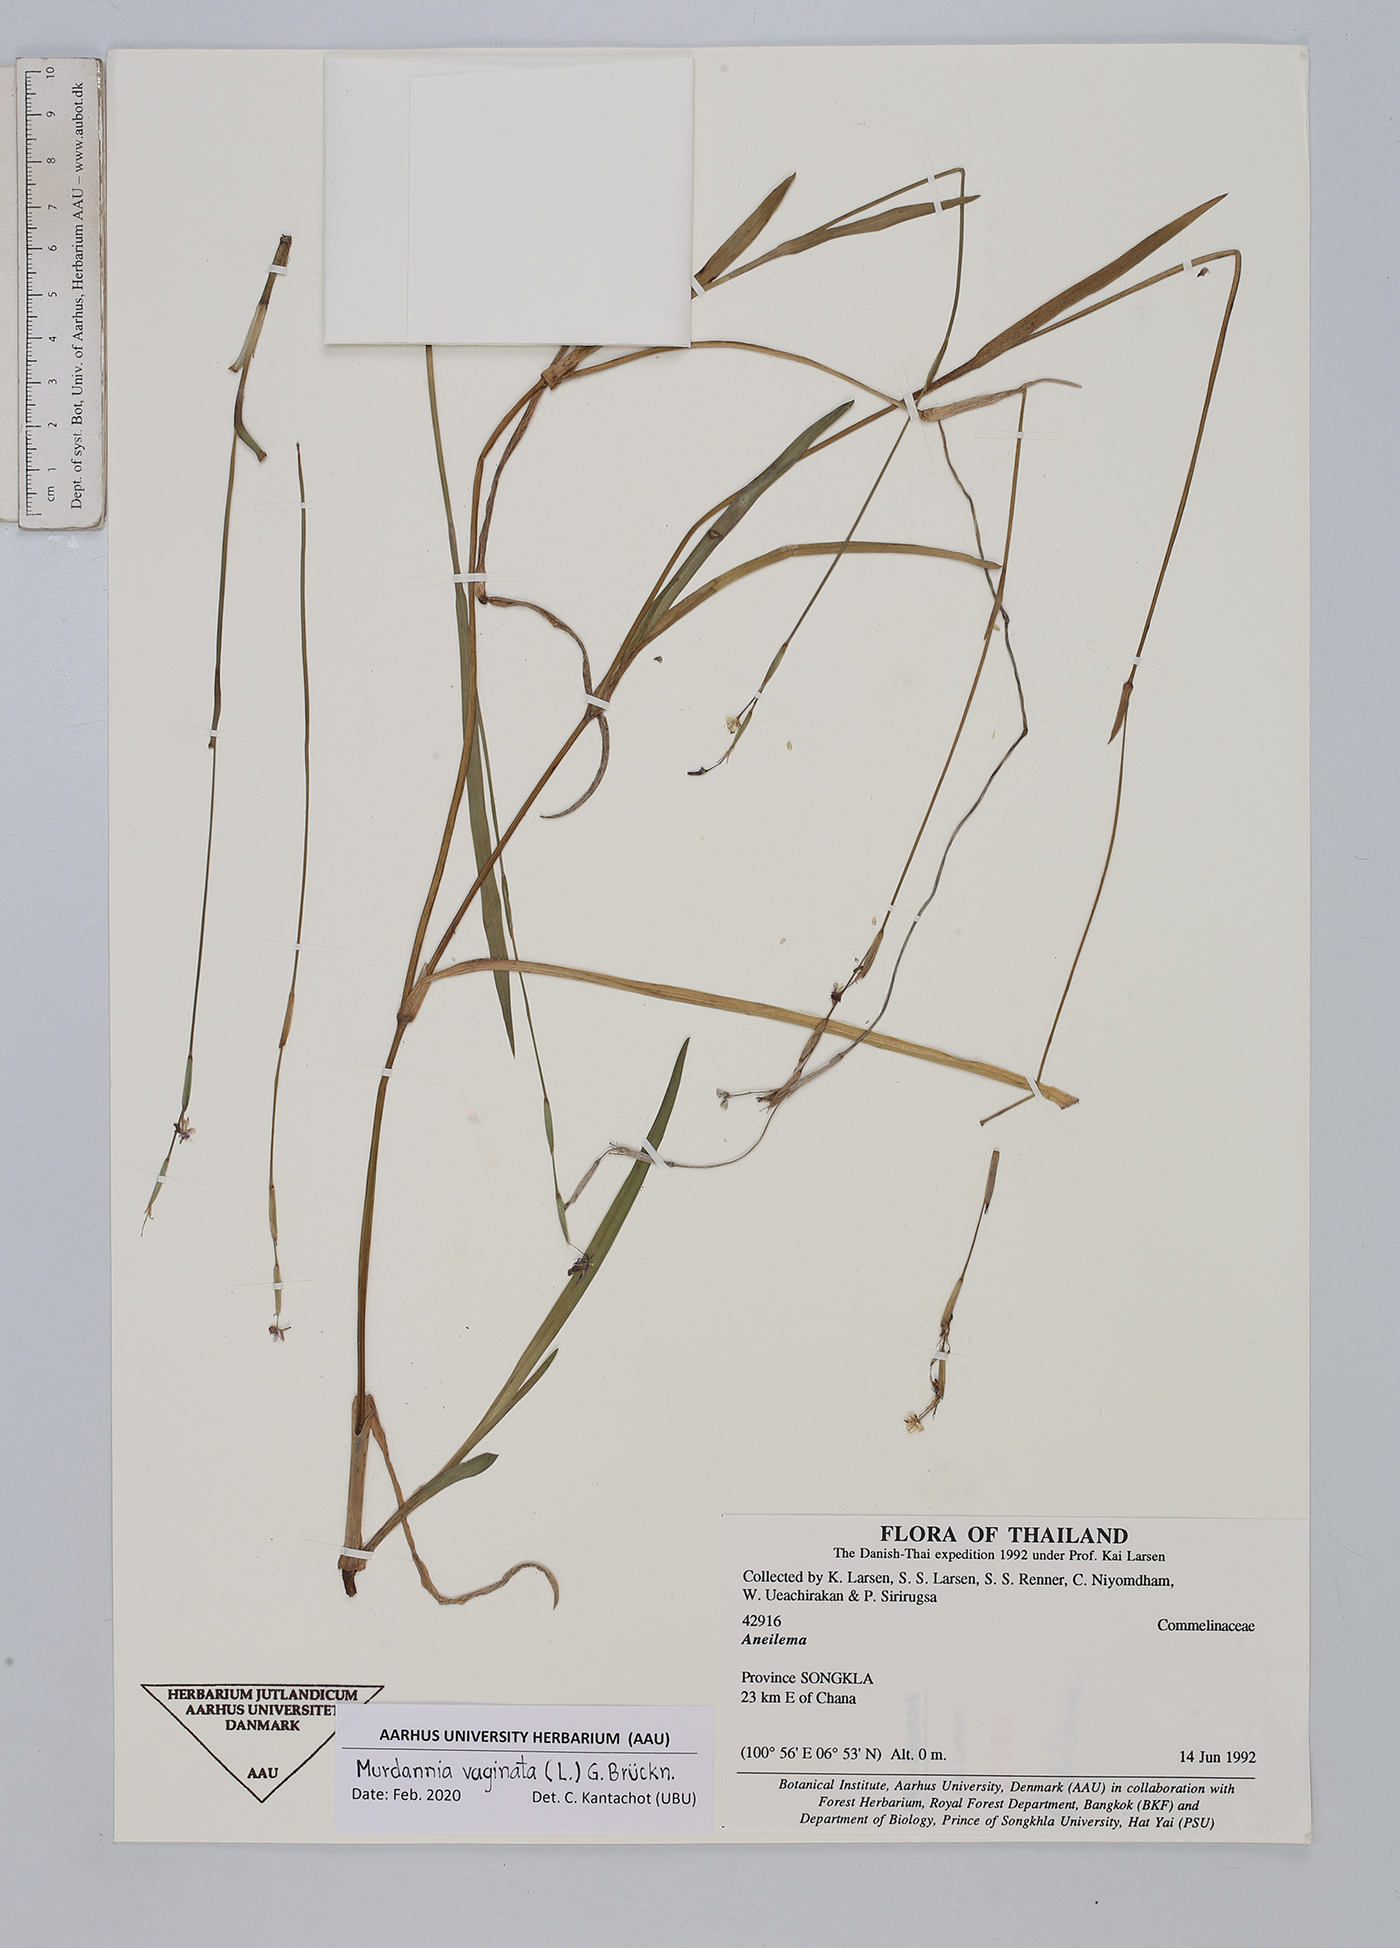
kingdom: Plantae
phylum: Tracheophyta
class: Liliopsida
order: Commelinales
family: Commelinaceae
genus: Murdannia
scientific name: Murdannia vaginata
